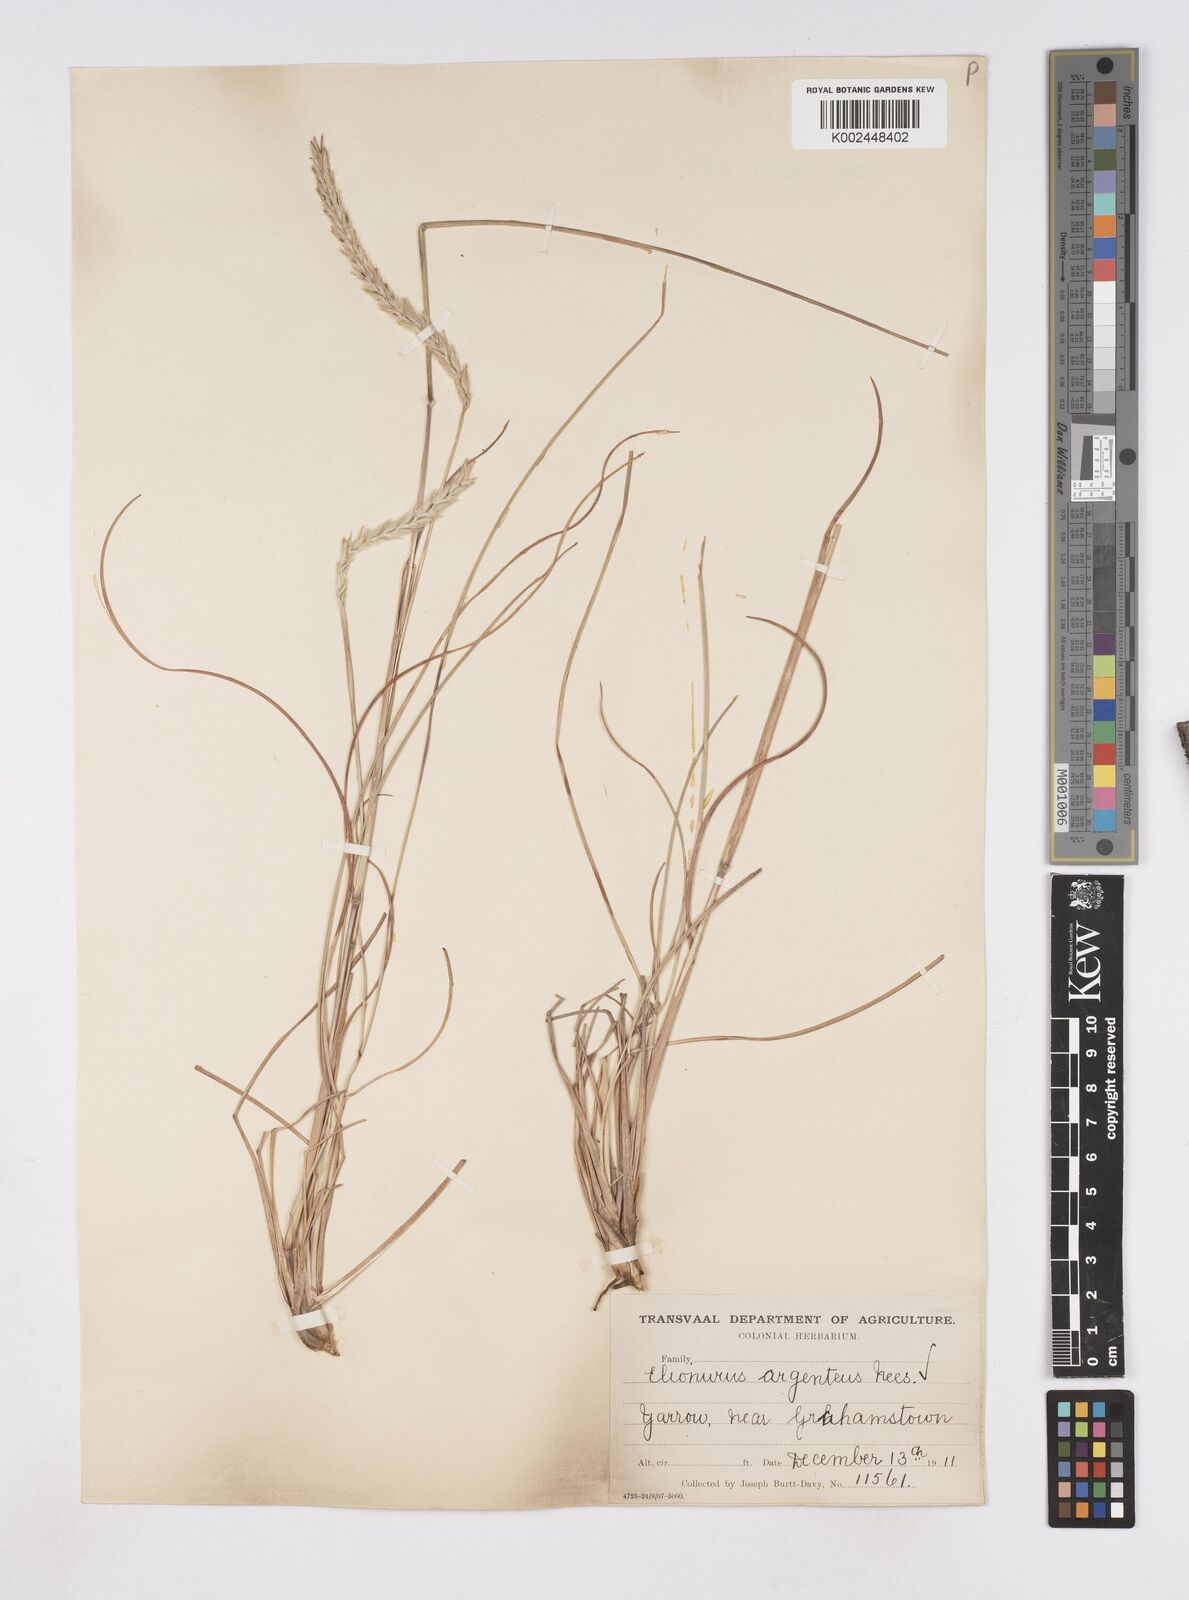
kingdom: Plantae
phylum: Tracheophyta
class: Liliopsida
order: Poales
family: Poaceae
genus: Elionurus
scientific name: Elionurus muticus
